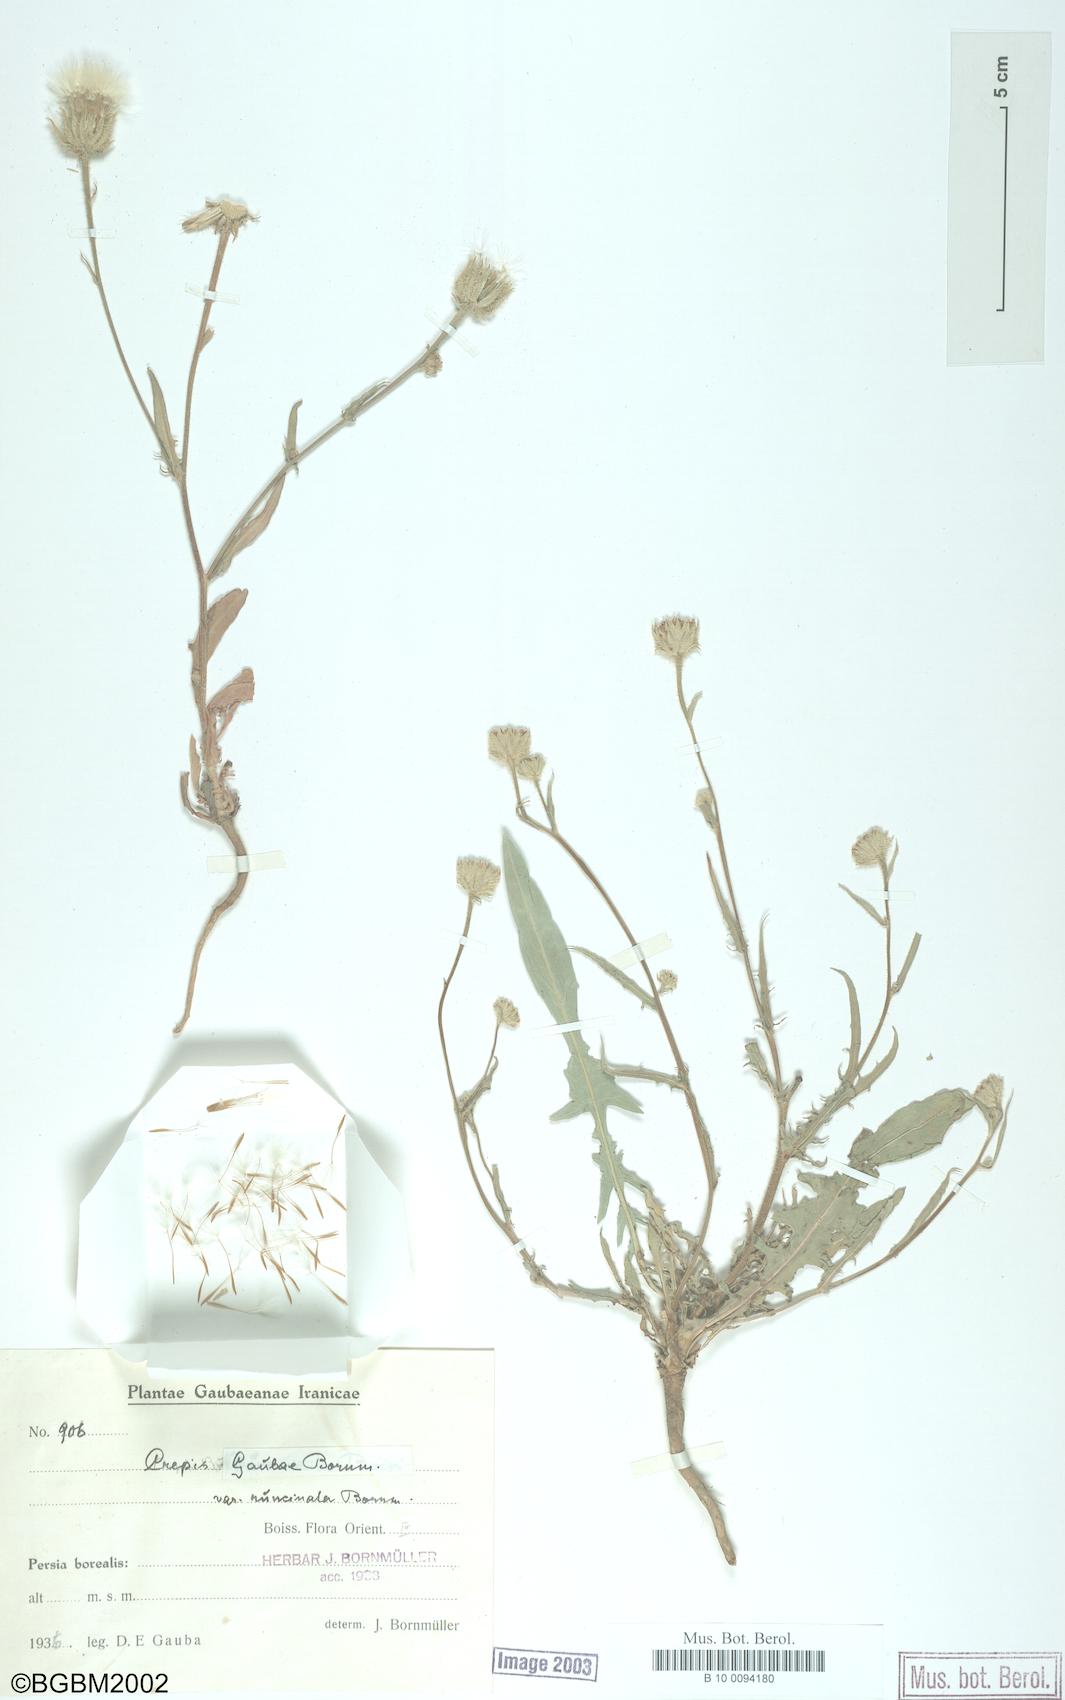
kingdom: Plantae
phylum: Tracheophyta
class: Magnoliopsida
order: Asterales
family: Asteraceae
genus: Crepis
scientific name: Crepis gaubae
